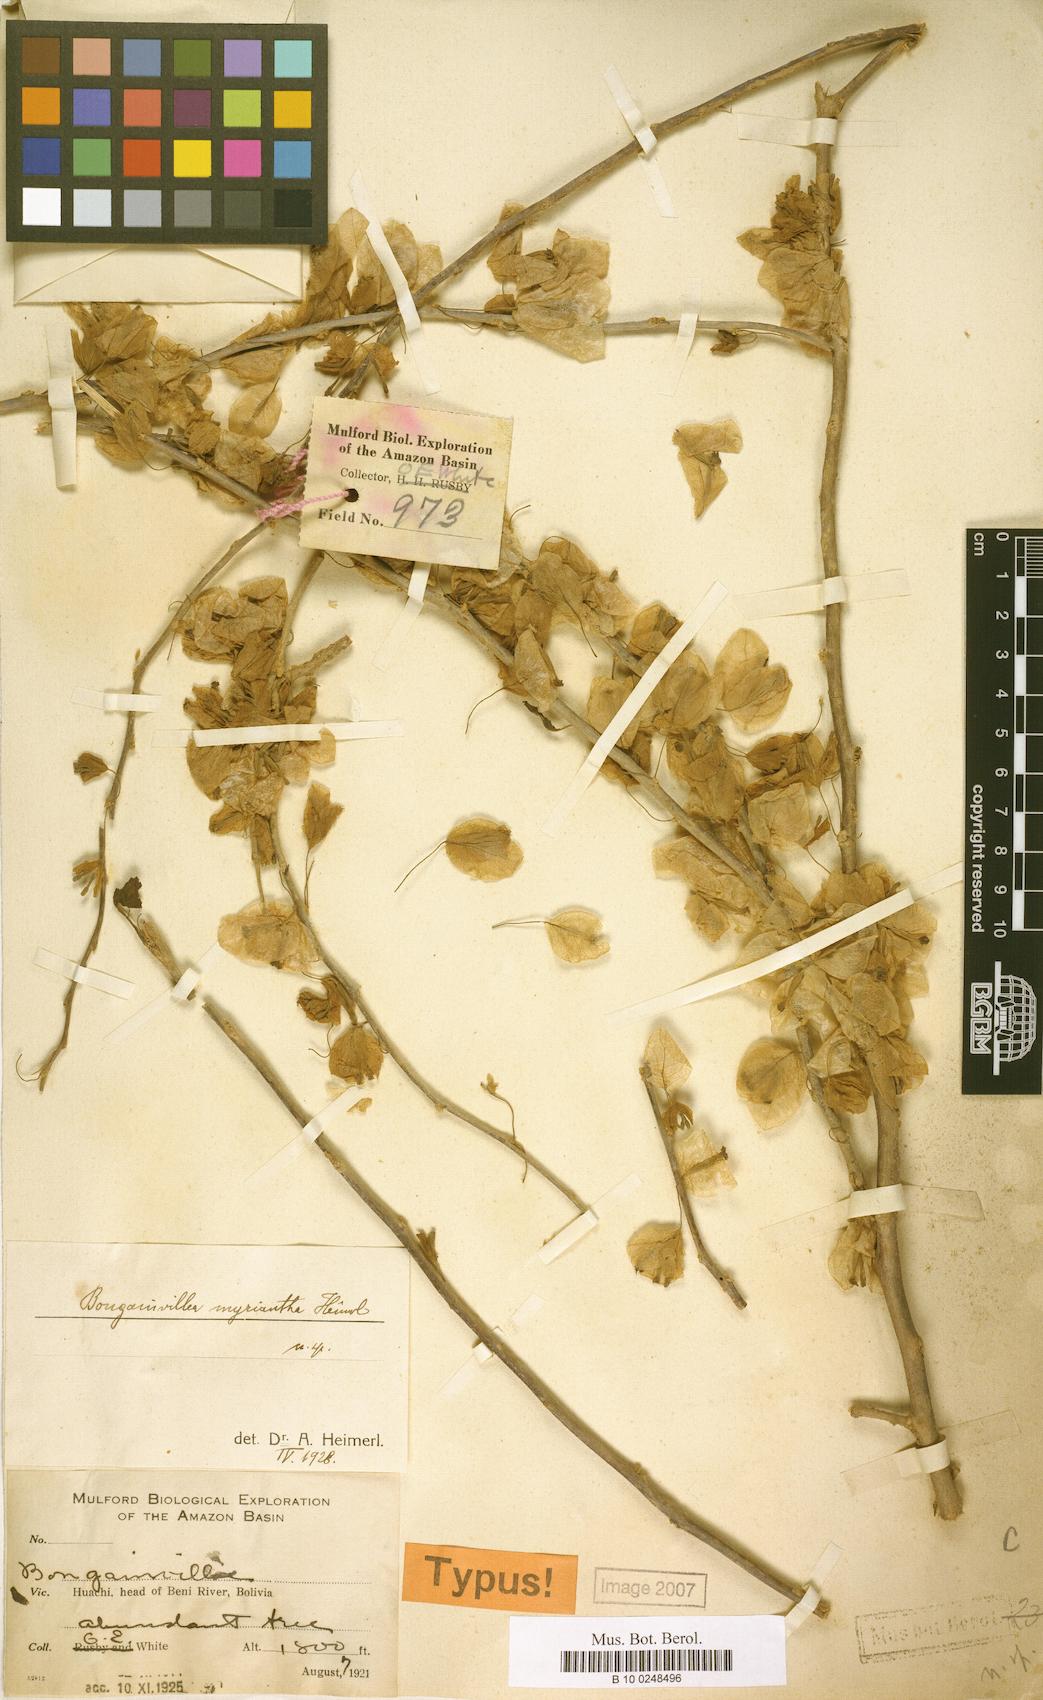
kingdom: Plantae
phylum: Tracheophyta
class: Magnoliopsida
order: Caryophyllales
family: Nyctaginaceae
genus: Bougainvillea
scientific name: Bougainvillea
